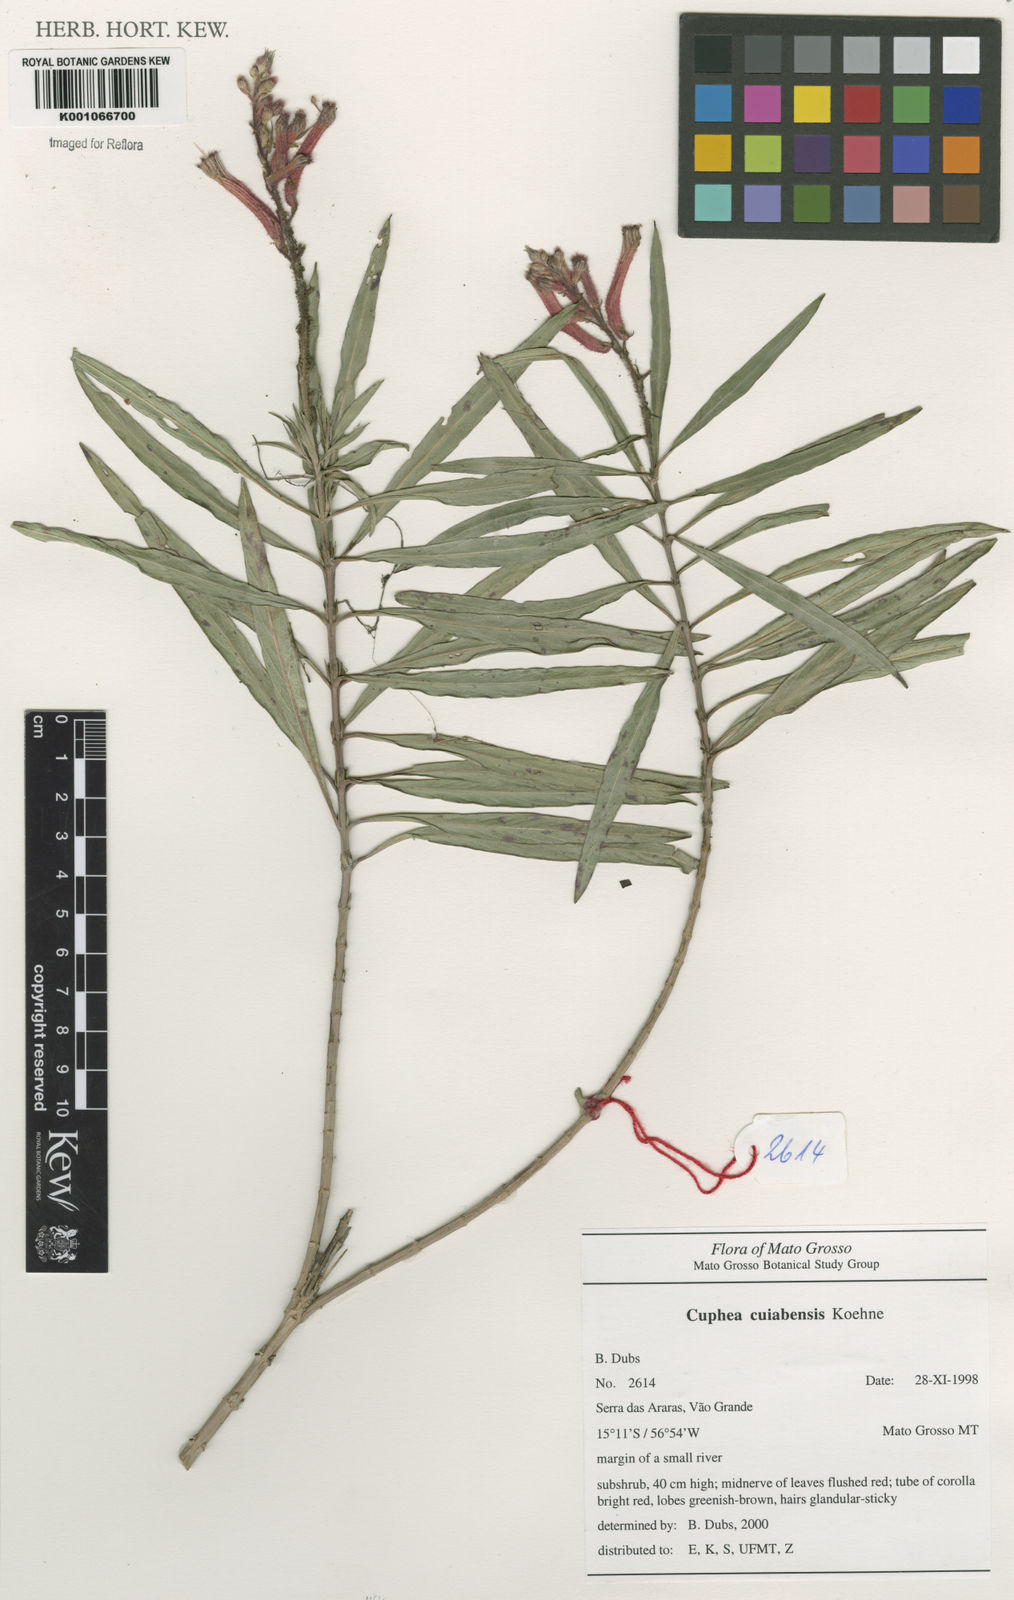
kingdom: Plantae
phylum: Tracheophyta
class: Magnoliopsida
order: Myrtales
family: Lythraceae
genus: Cuphea
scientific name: Cuphea melvilla
